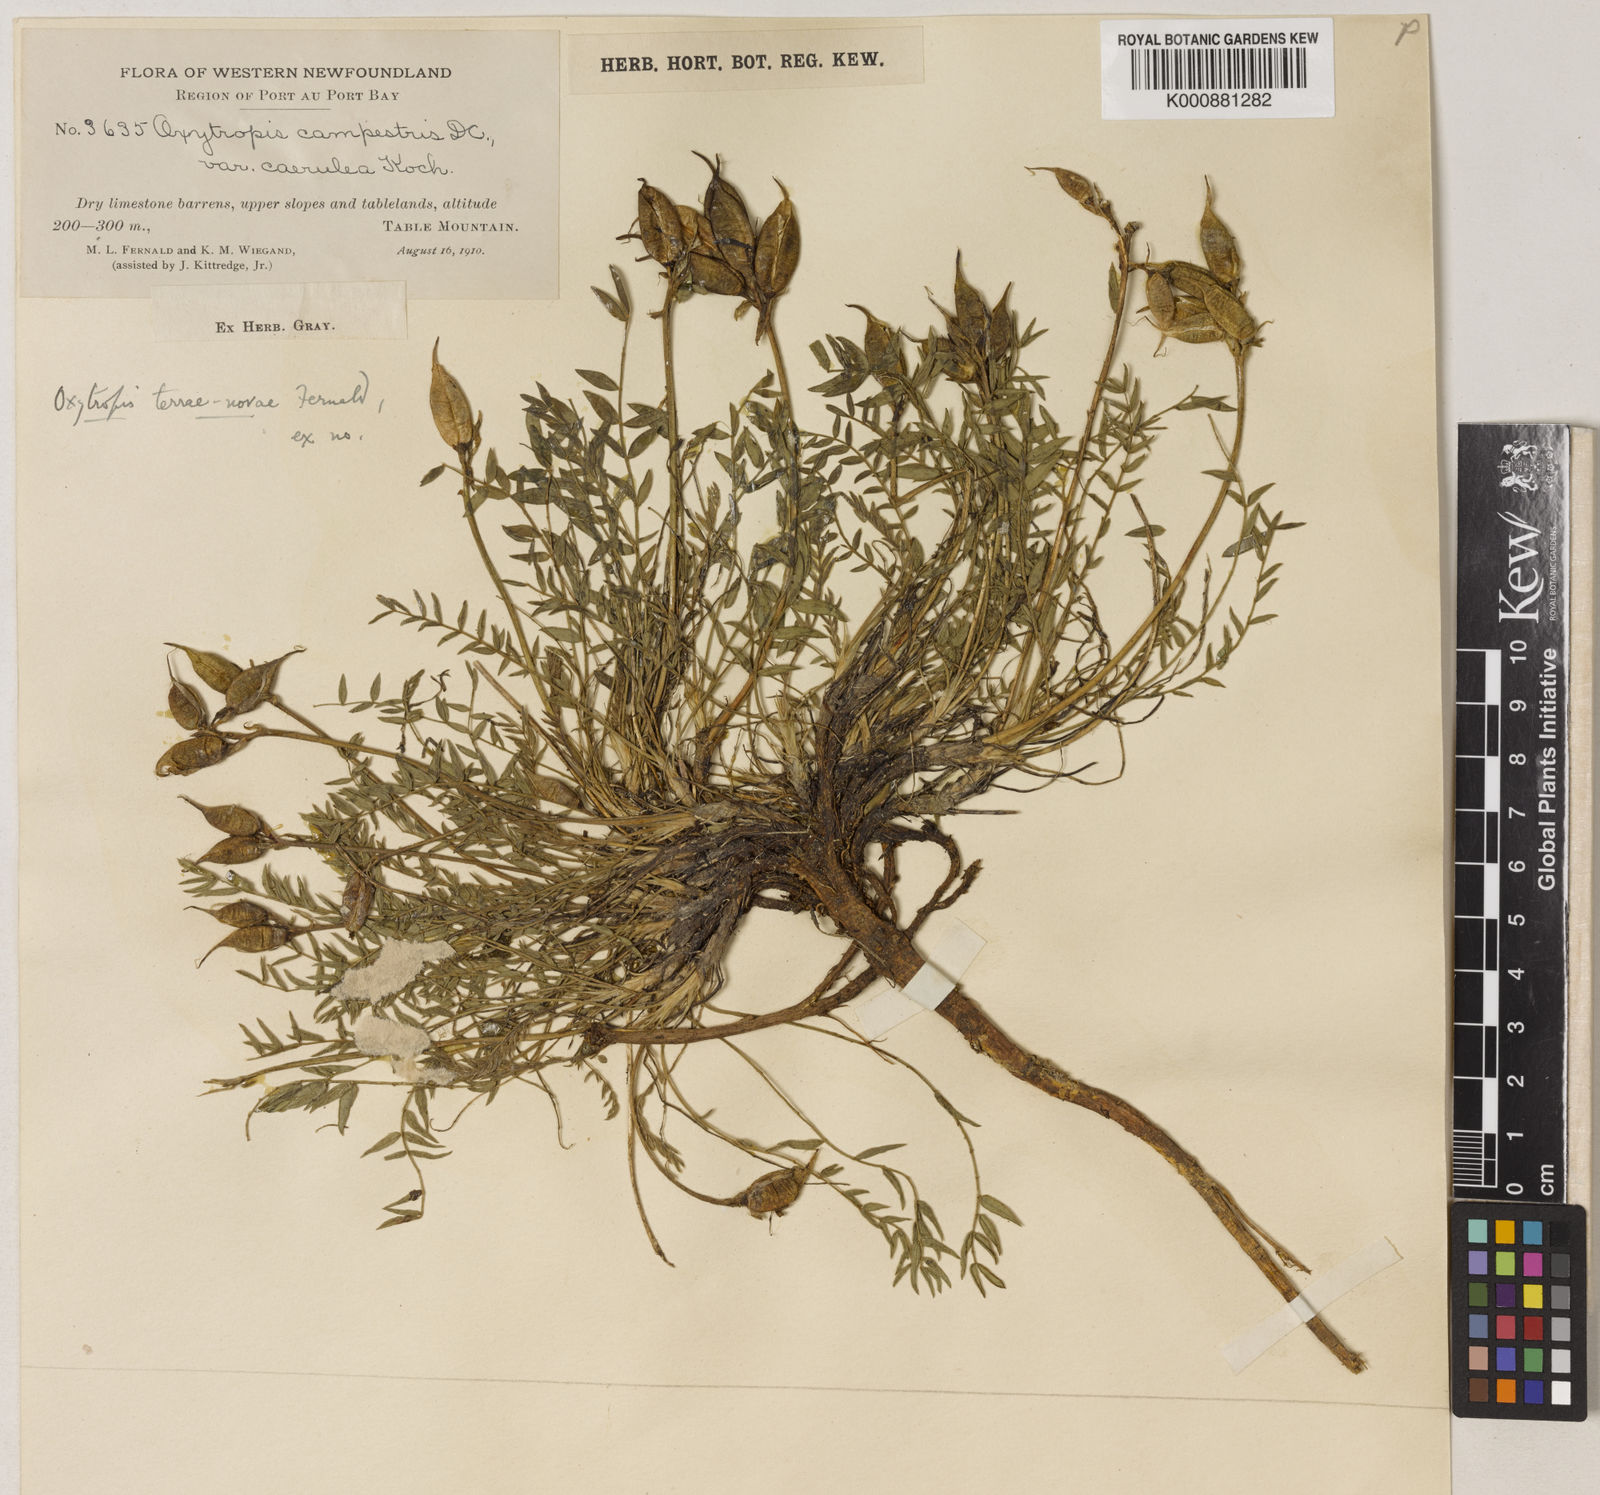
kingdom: Plantae
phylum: Tracheophyta
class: Magnoliopsida
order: Fabales
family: Fabaceae
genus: Oxytropis
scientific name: Oxytropis campestris
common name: Field locoweed
